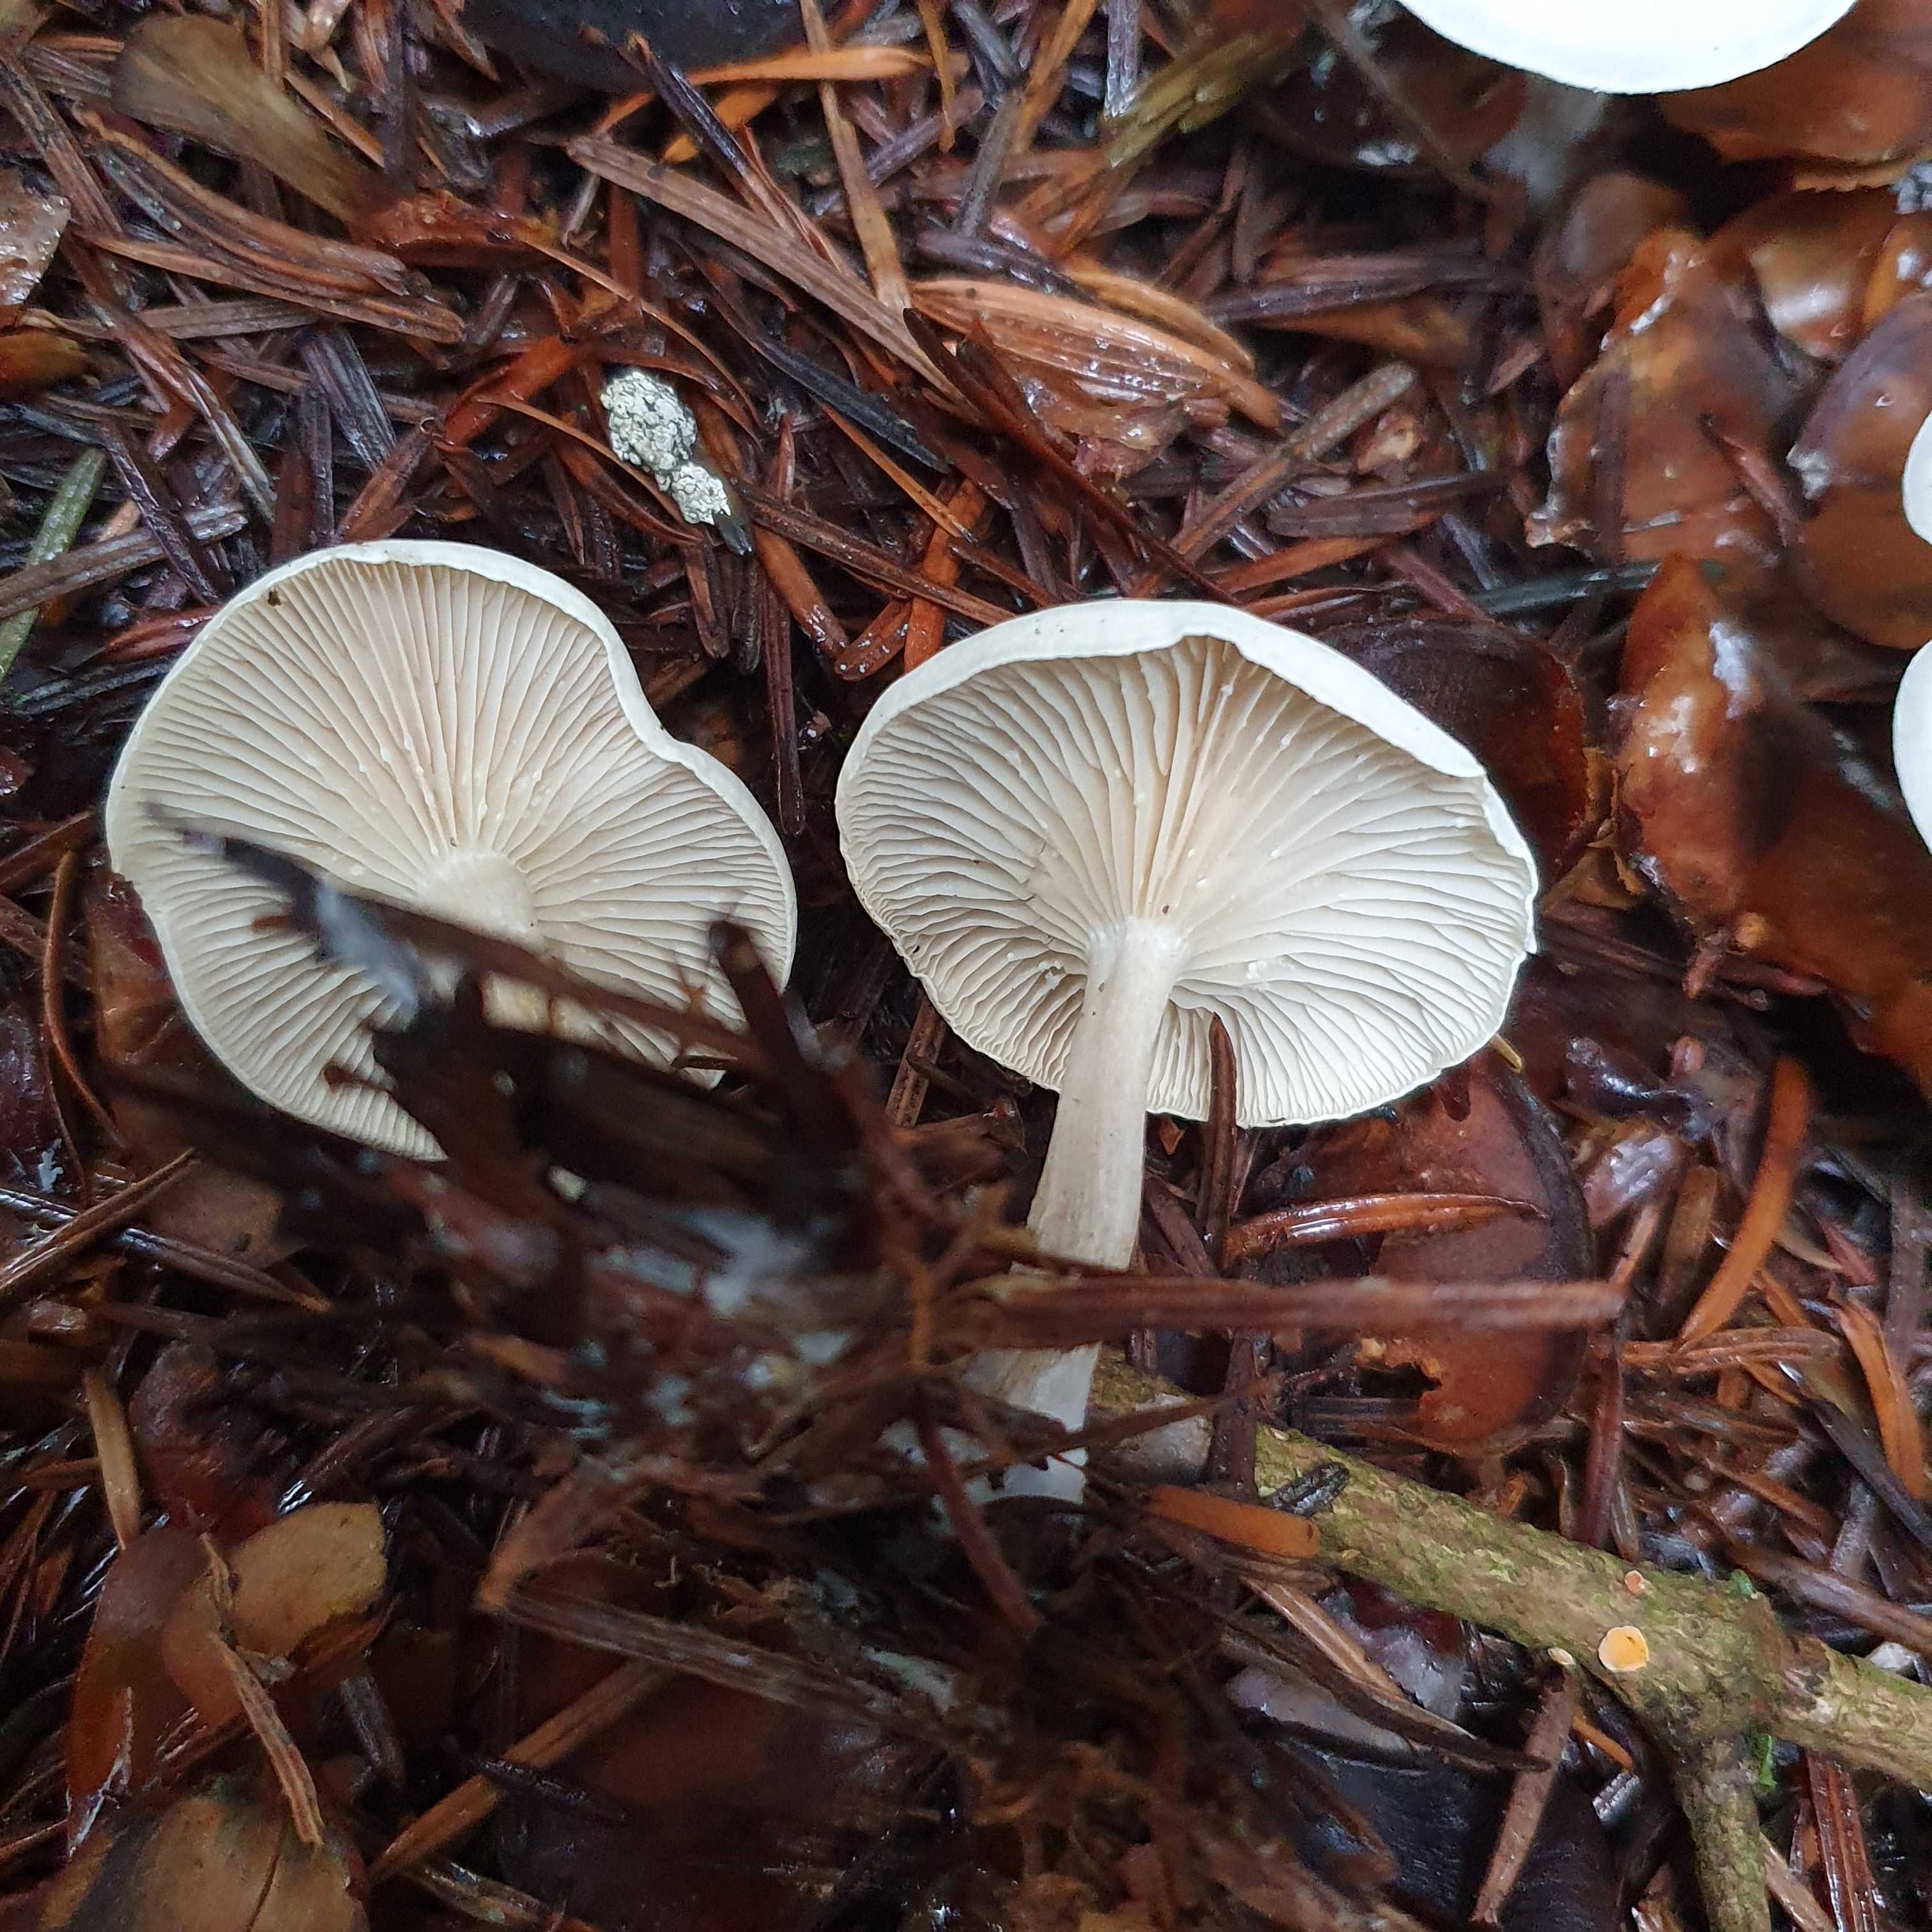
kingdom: Fungi
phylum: Basidiomycota
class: Agaricomycetes
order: Agaricales
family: Tricholomataceae
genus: Leucocybe
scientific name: Leucocybe candicans
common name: kridt-tragthat
